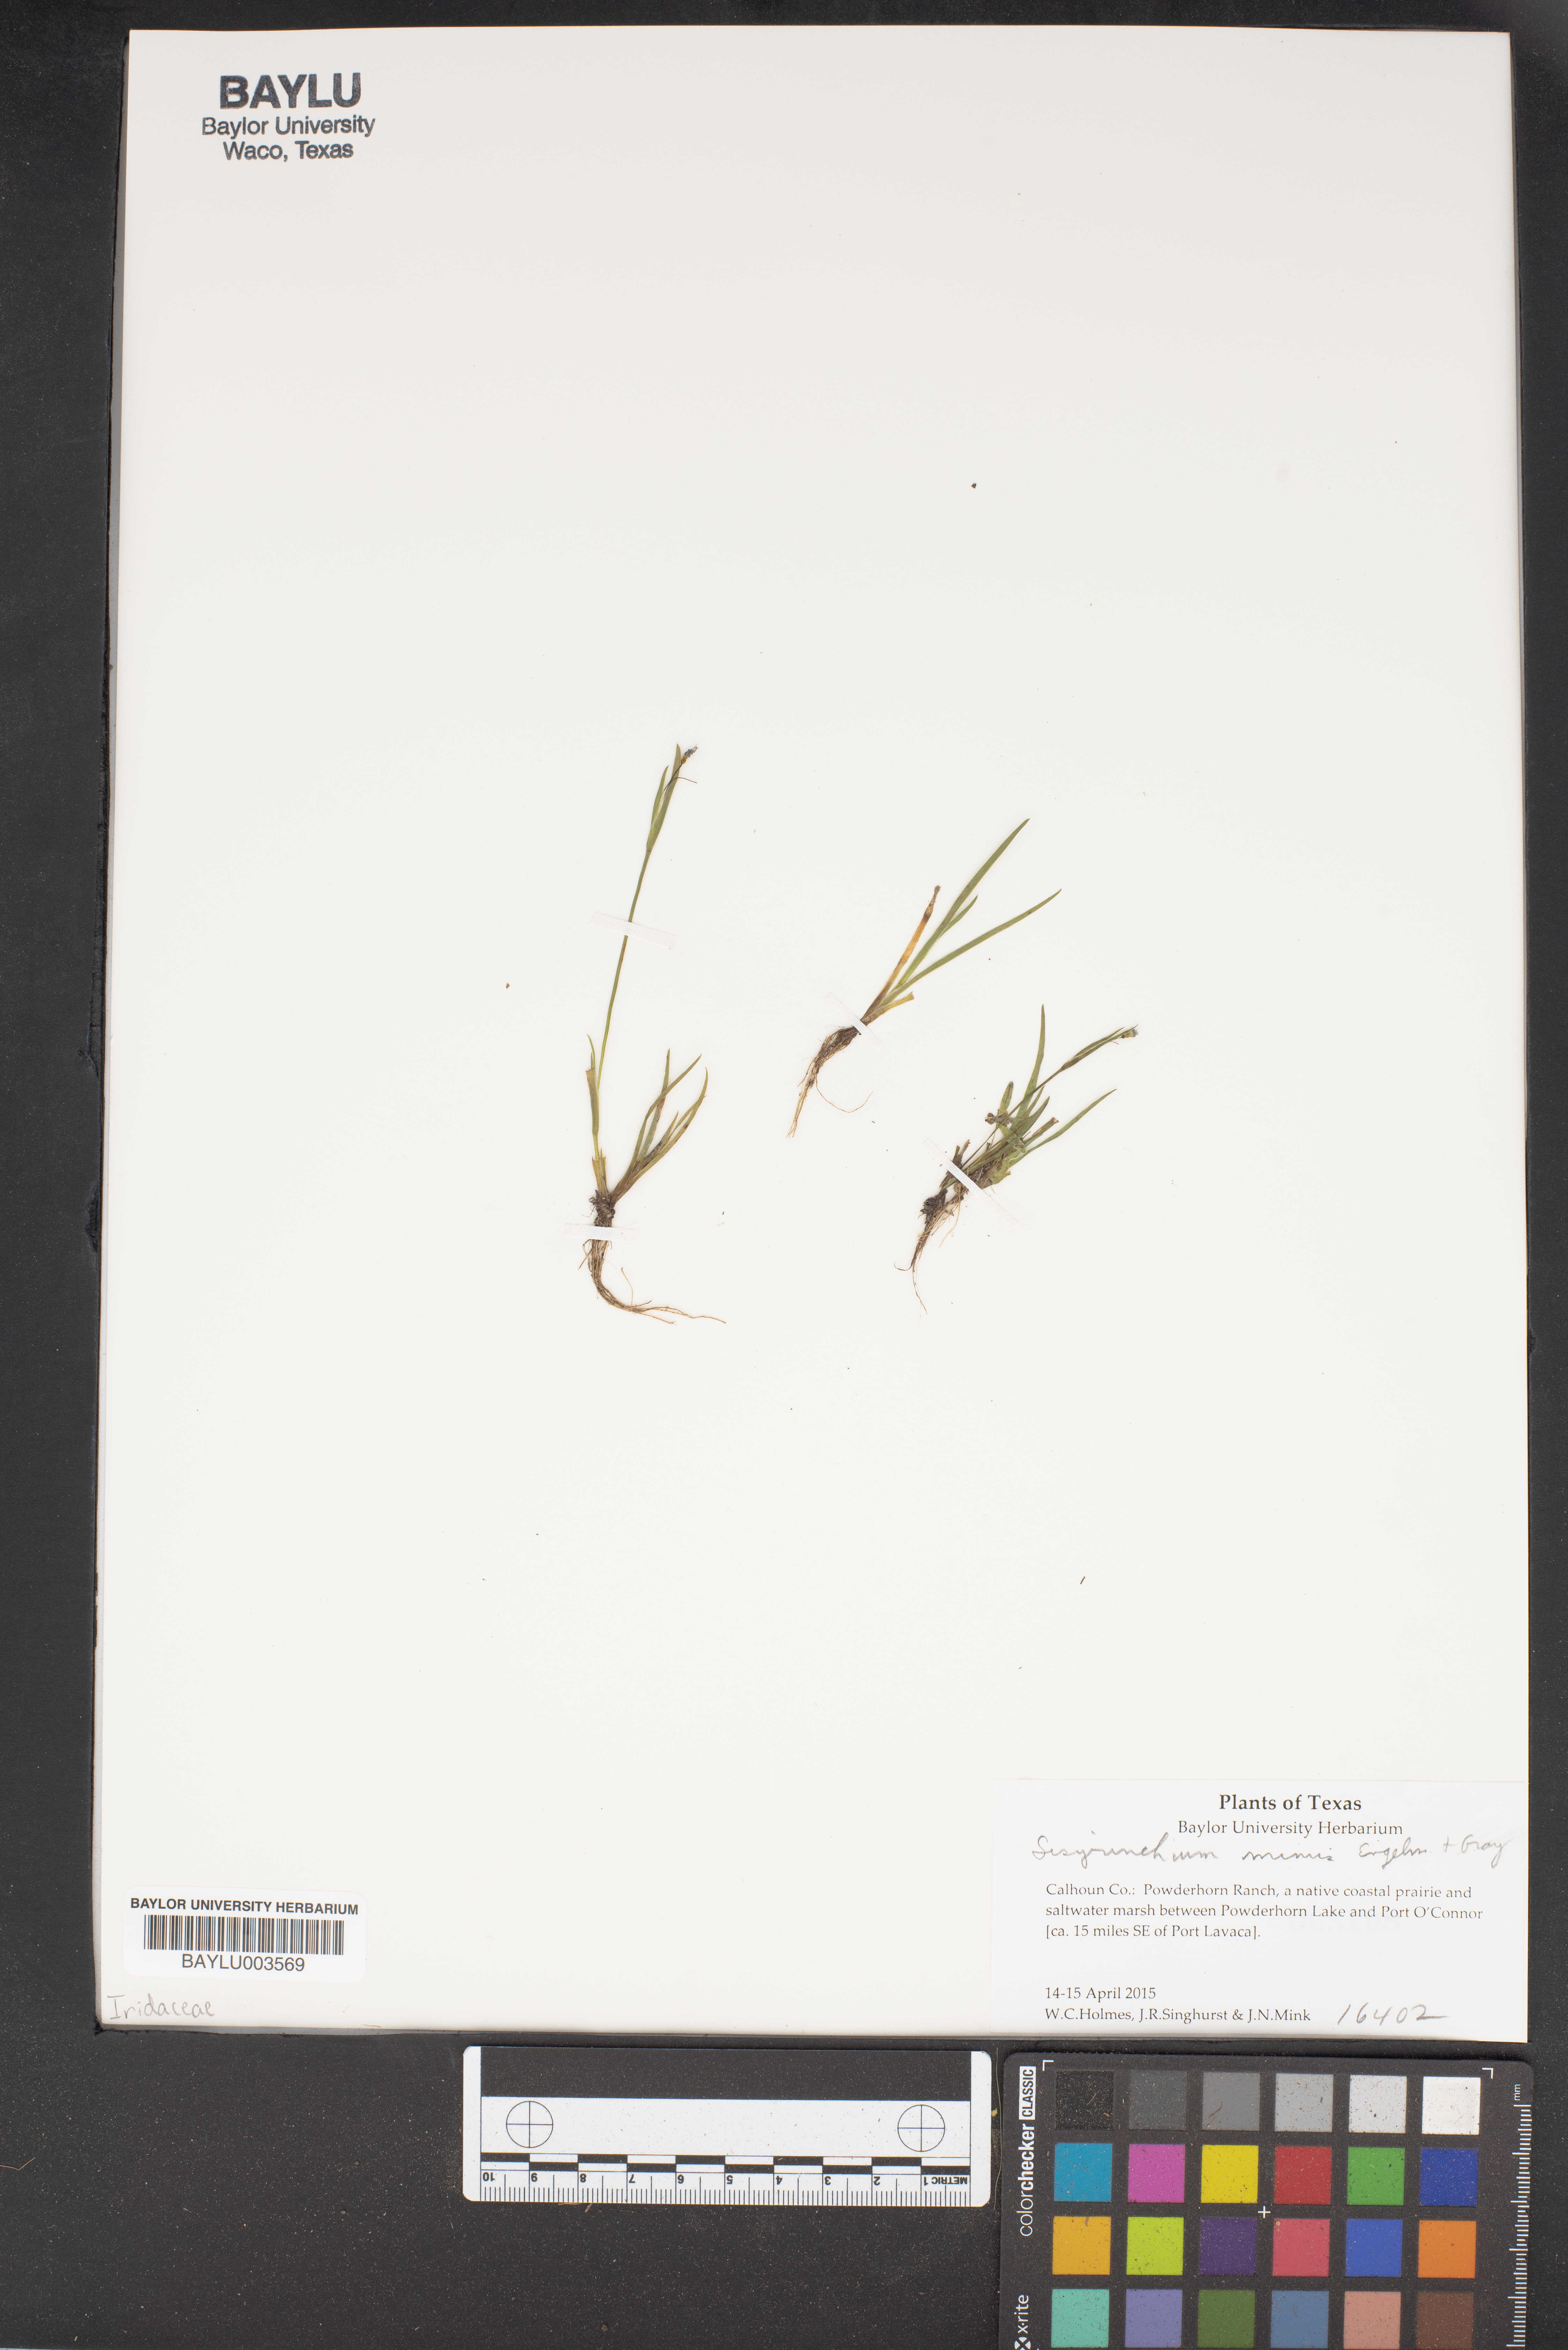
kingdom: Plantae
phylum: Tracheophyta
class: Magnoliopsida
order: Brassicales
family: Brassicaceae
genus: Halimolobos
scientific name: Halimolobos multiracemosus
